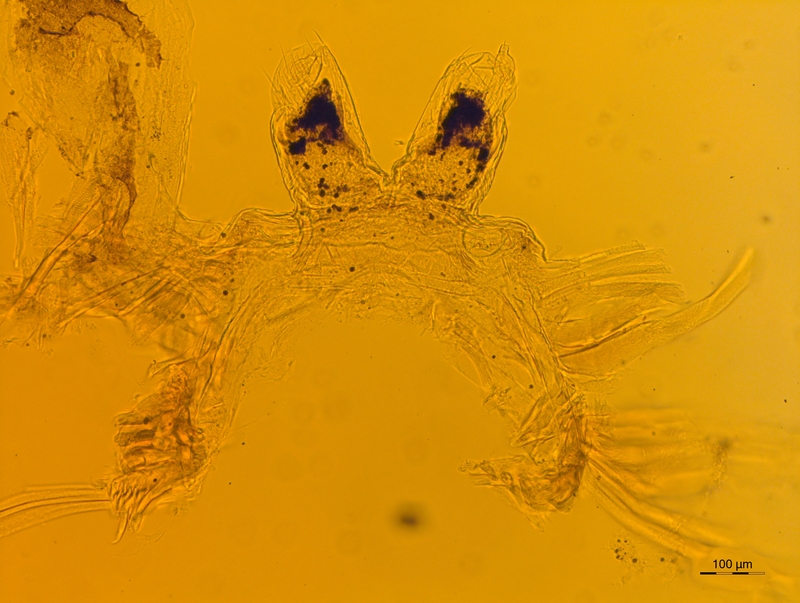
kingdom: Animalia
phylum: Arthropoda
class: Diplopoda
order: Chordeumatida
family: Craspedosomatidae
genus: Atractosoma
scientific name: Atractosoma meridionale
